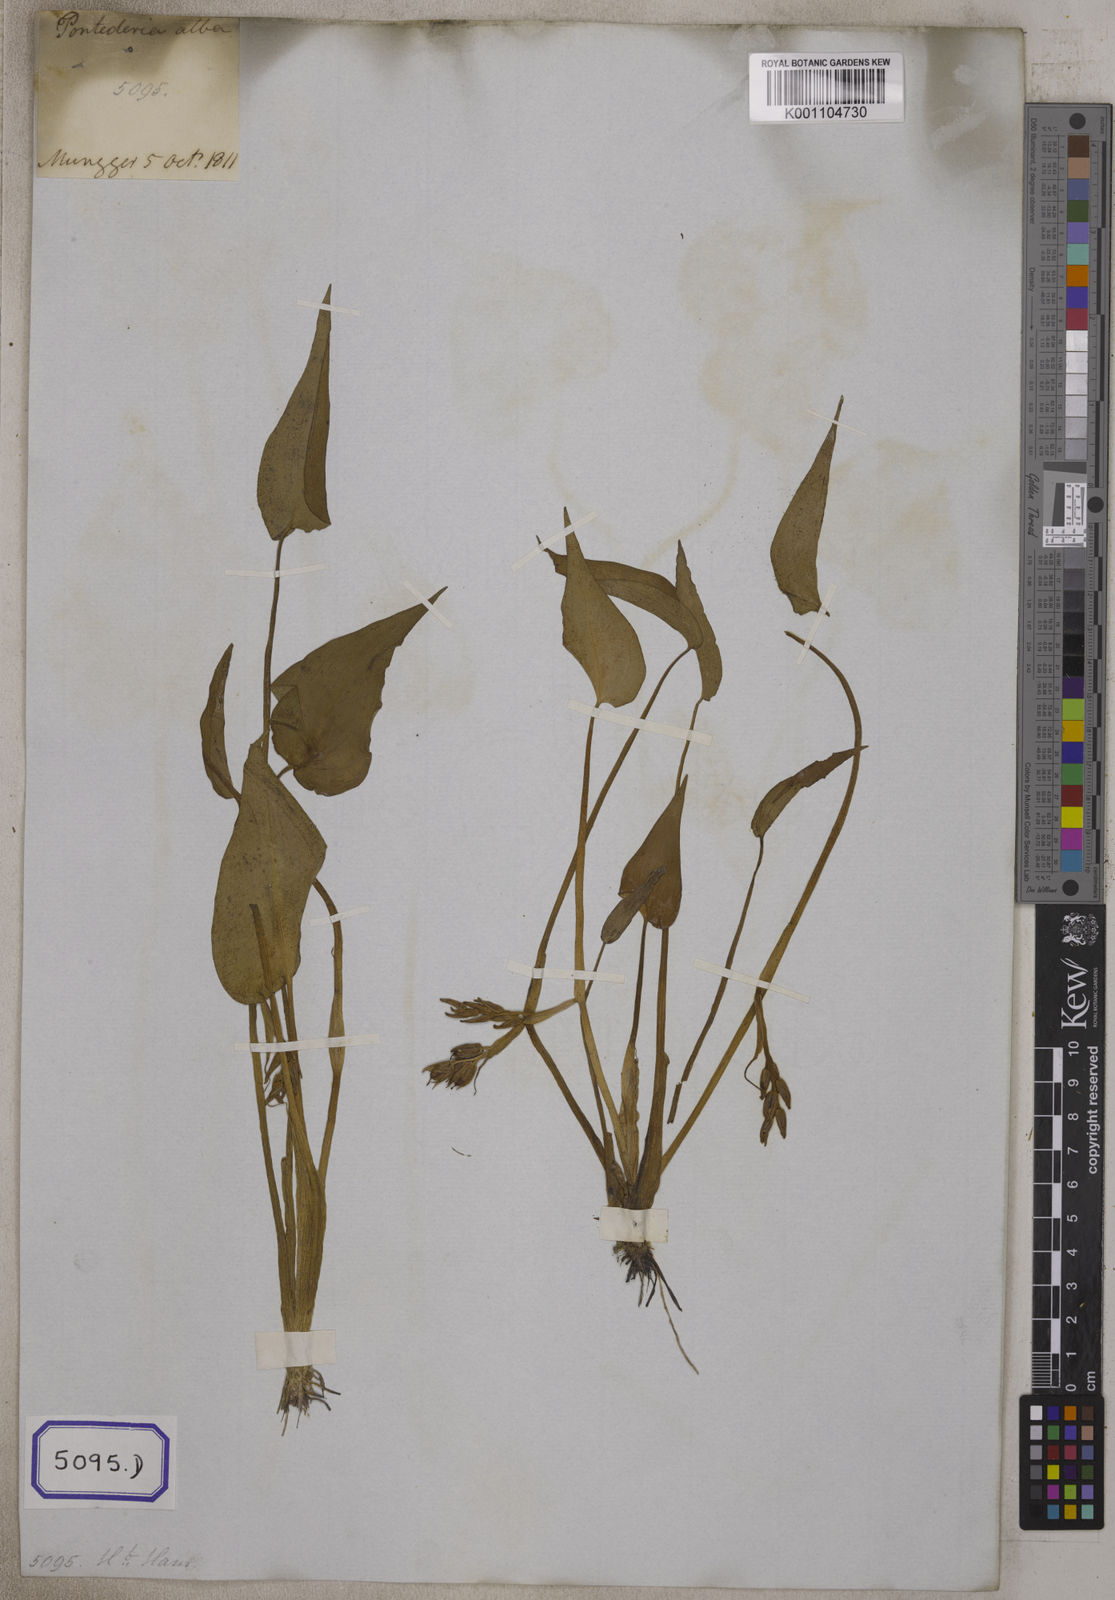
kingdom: Plantae
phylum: Tracheophyta
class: Liliopsida
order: Commelinales
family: Pontederiaceae
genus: Pontederia
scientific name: Pontederia
